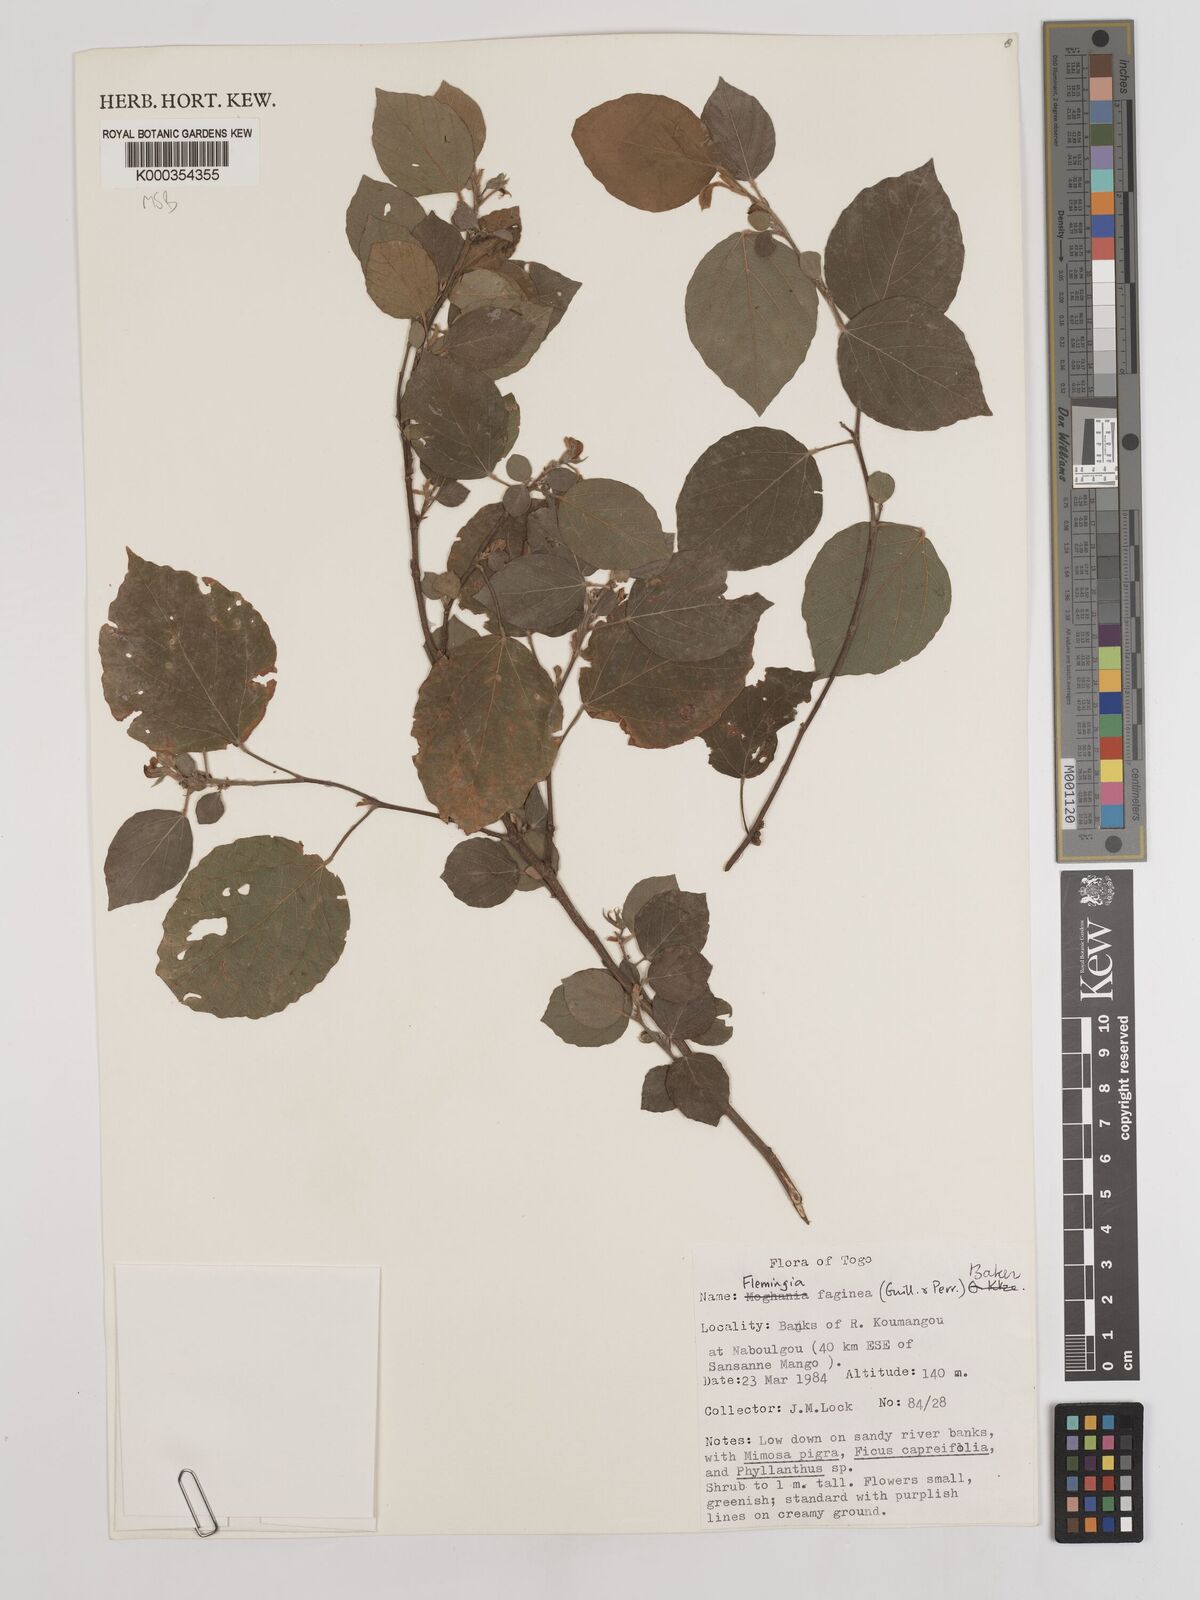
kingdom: Plantae
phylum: Tracheophyta
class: Magnoliopsida
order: Fabales
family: Fabaceae
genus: Flemingia
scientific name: Flemingia faginea
